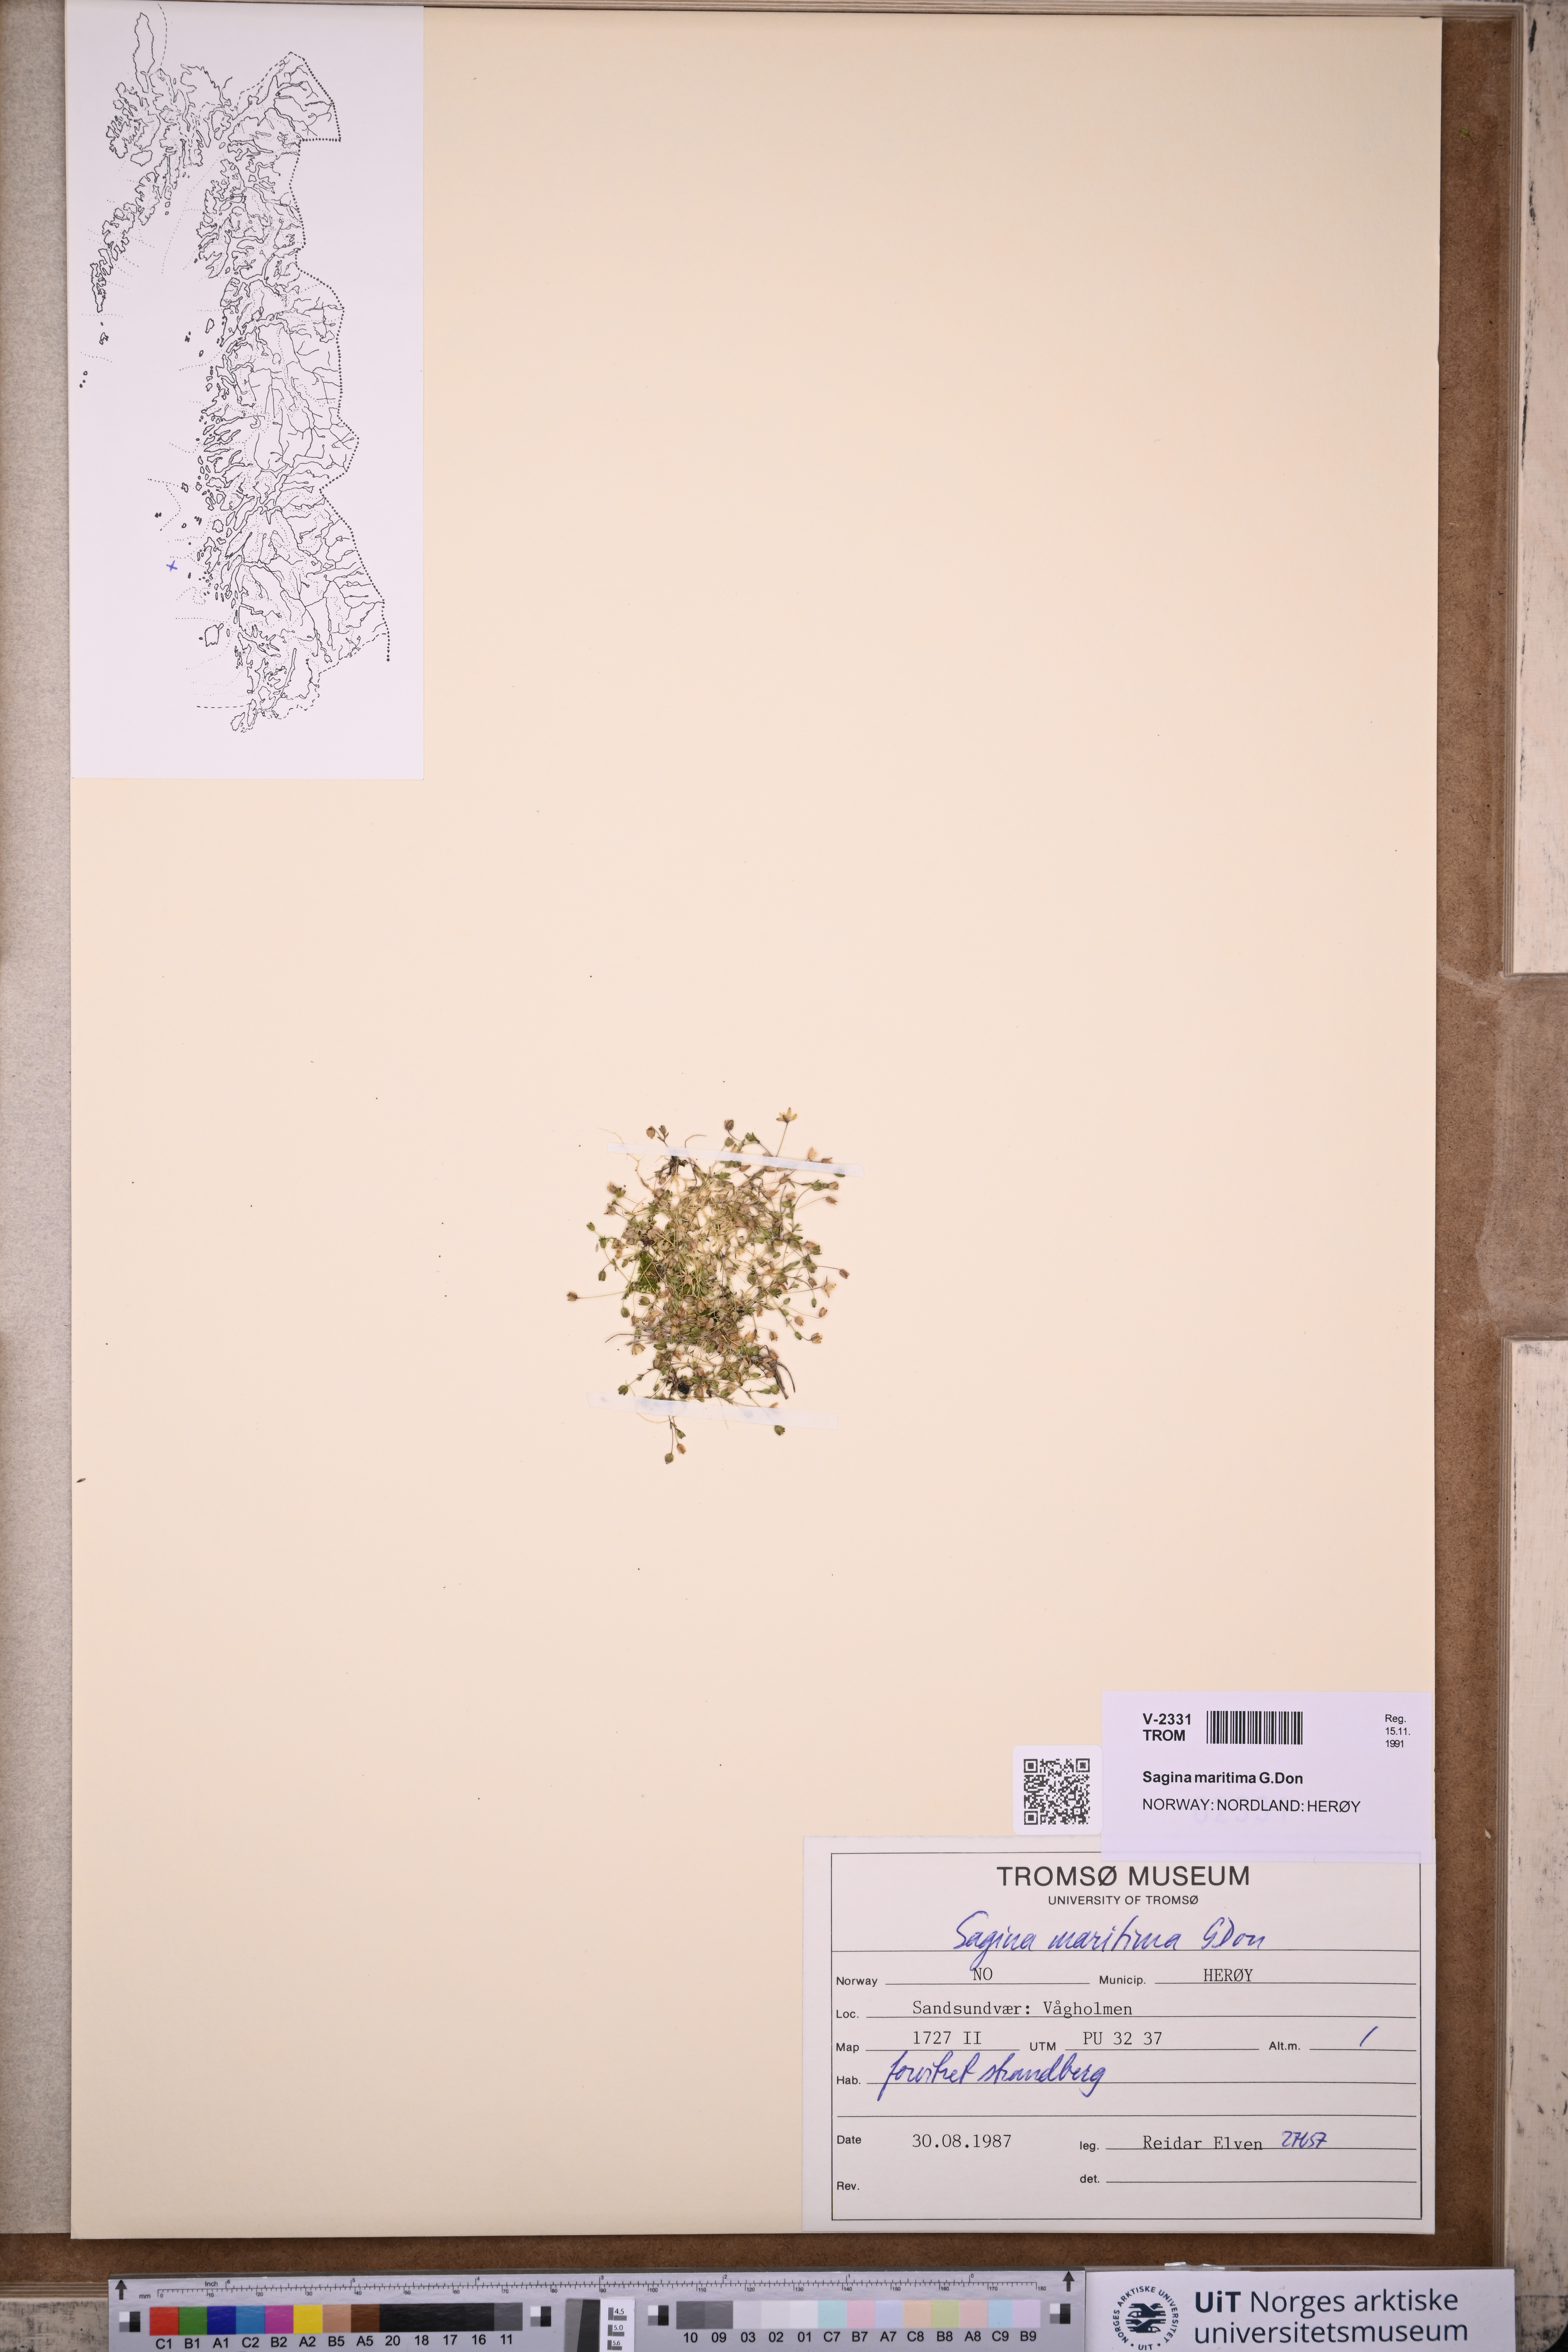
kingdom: Plantae
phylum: Tracheophyta
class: Magnoliopsida
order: Caryophyllales
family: Caryophyllaceae
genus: Sagina
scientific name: Sagina maritima
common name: Sea pearlwort
